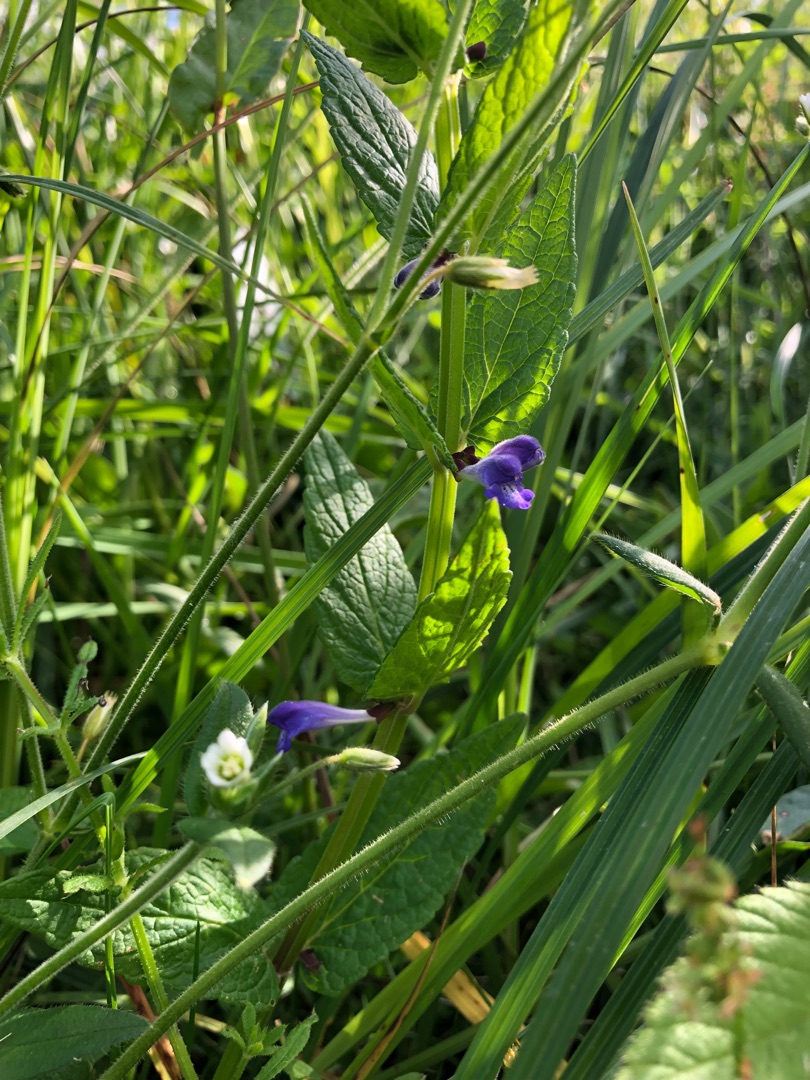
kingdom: Plantae
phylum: Tracheophyta
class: Magnoliopsida
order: Lamiales
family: Lamiaceae
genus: Scutellaria
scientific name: Scutellaria galericulata
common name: Almindelig skjolddrager
